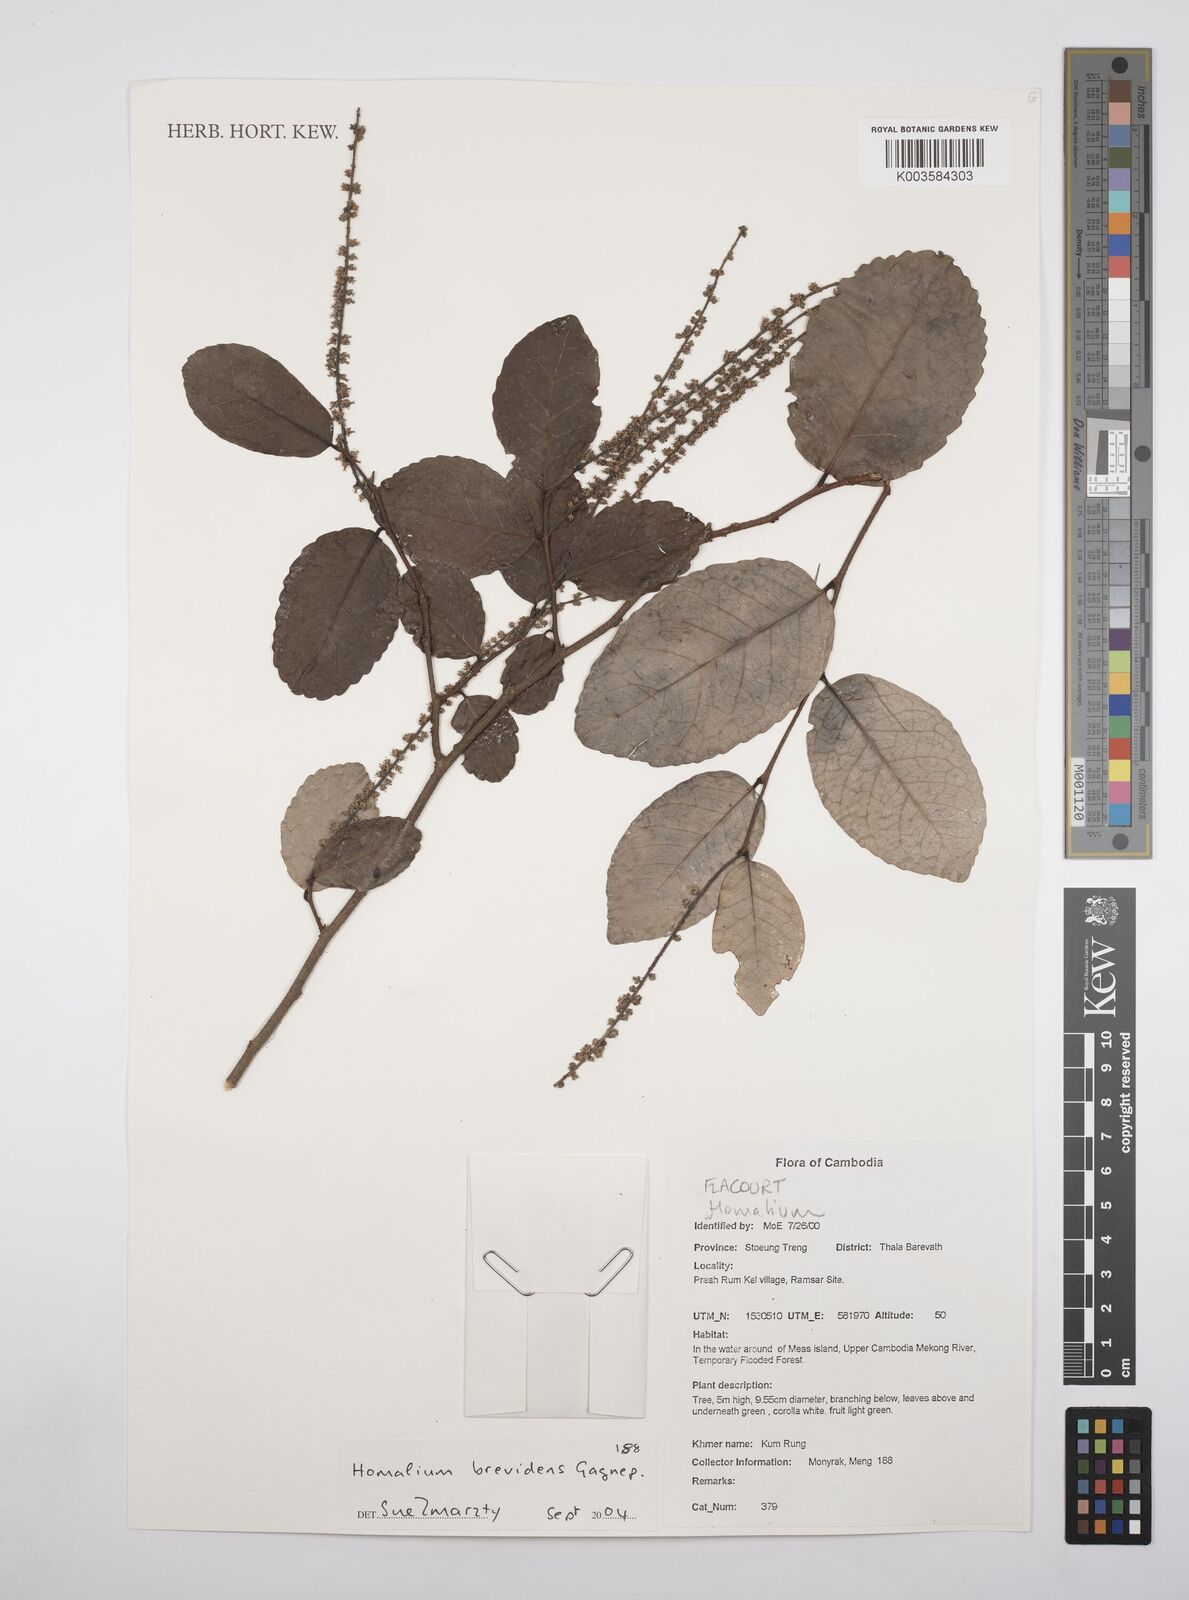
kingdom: Plantae
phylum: Tracheophyta
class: Magnoliopsida
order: Malpighiales
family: Salicaceae
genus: Homalium
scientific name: Homalium brevidens
